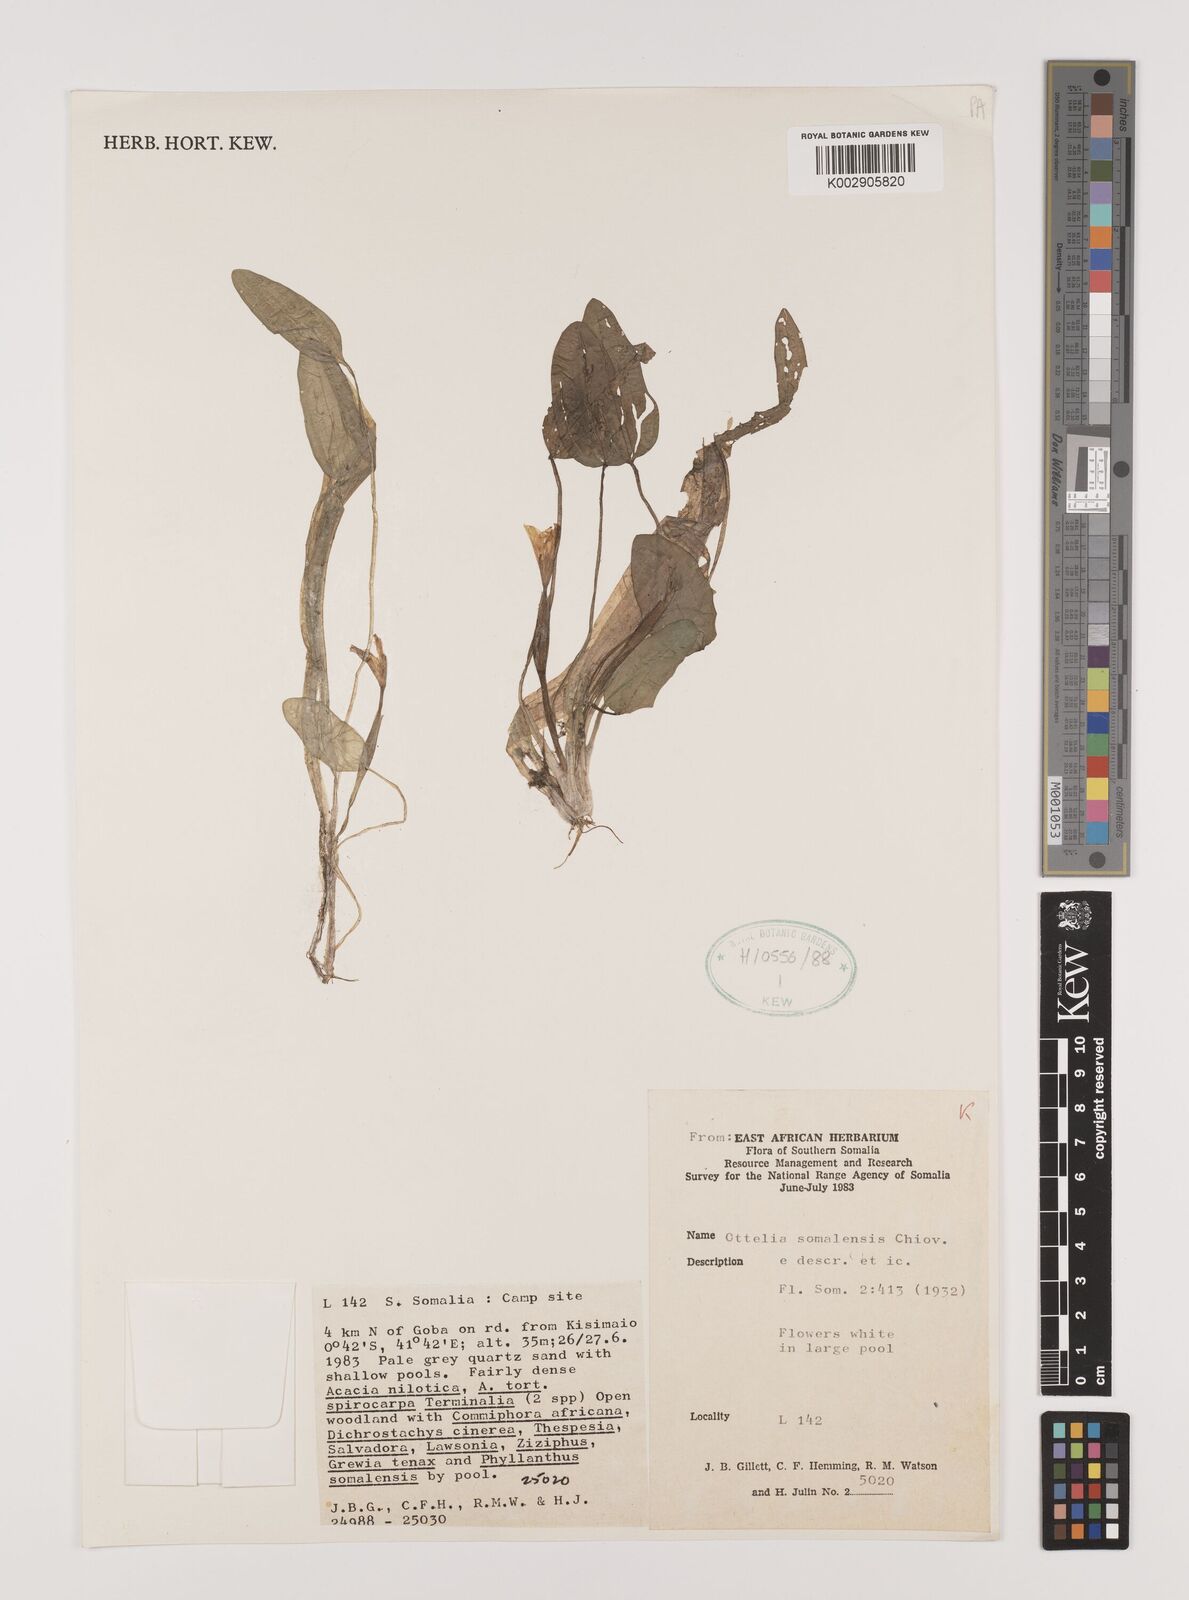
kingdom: Plantae
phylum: Tracheophyta
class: Liliopsida
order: Alismatales
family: Hydrocharitaceae
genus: Ottelia
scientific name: Ottelia exserta
